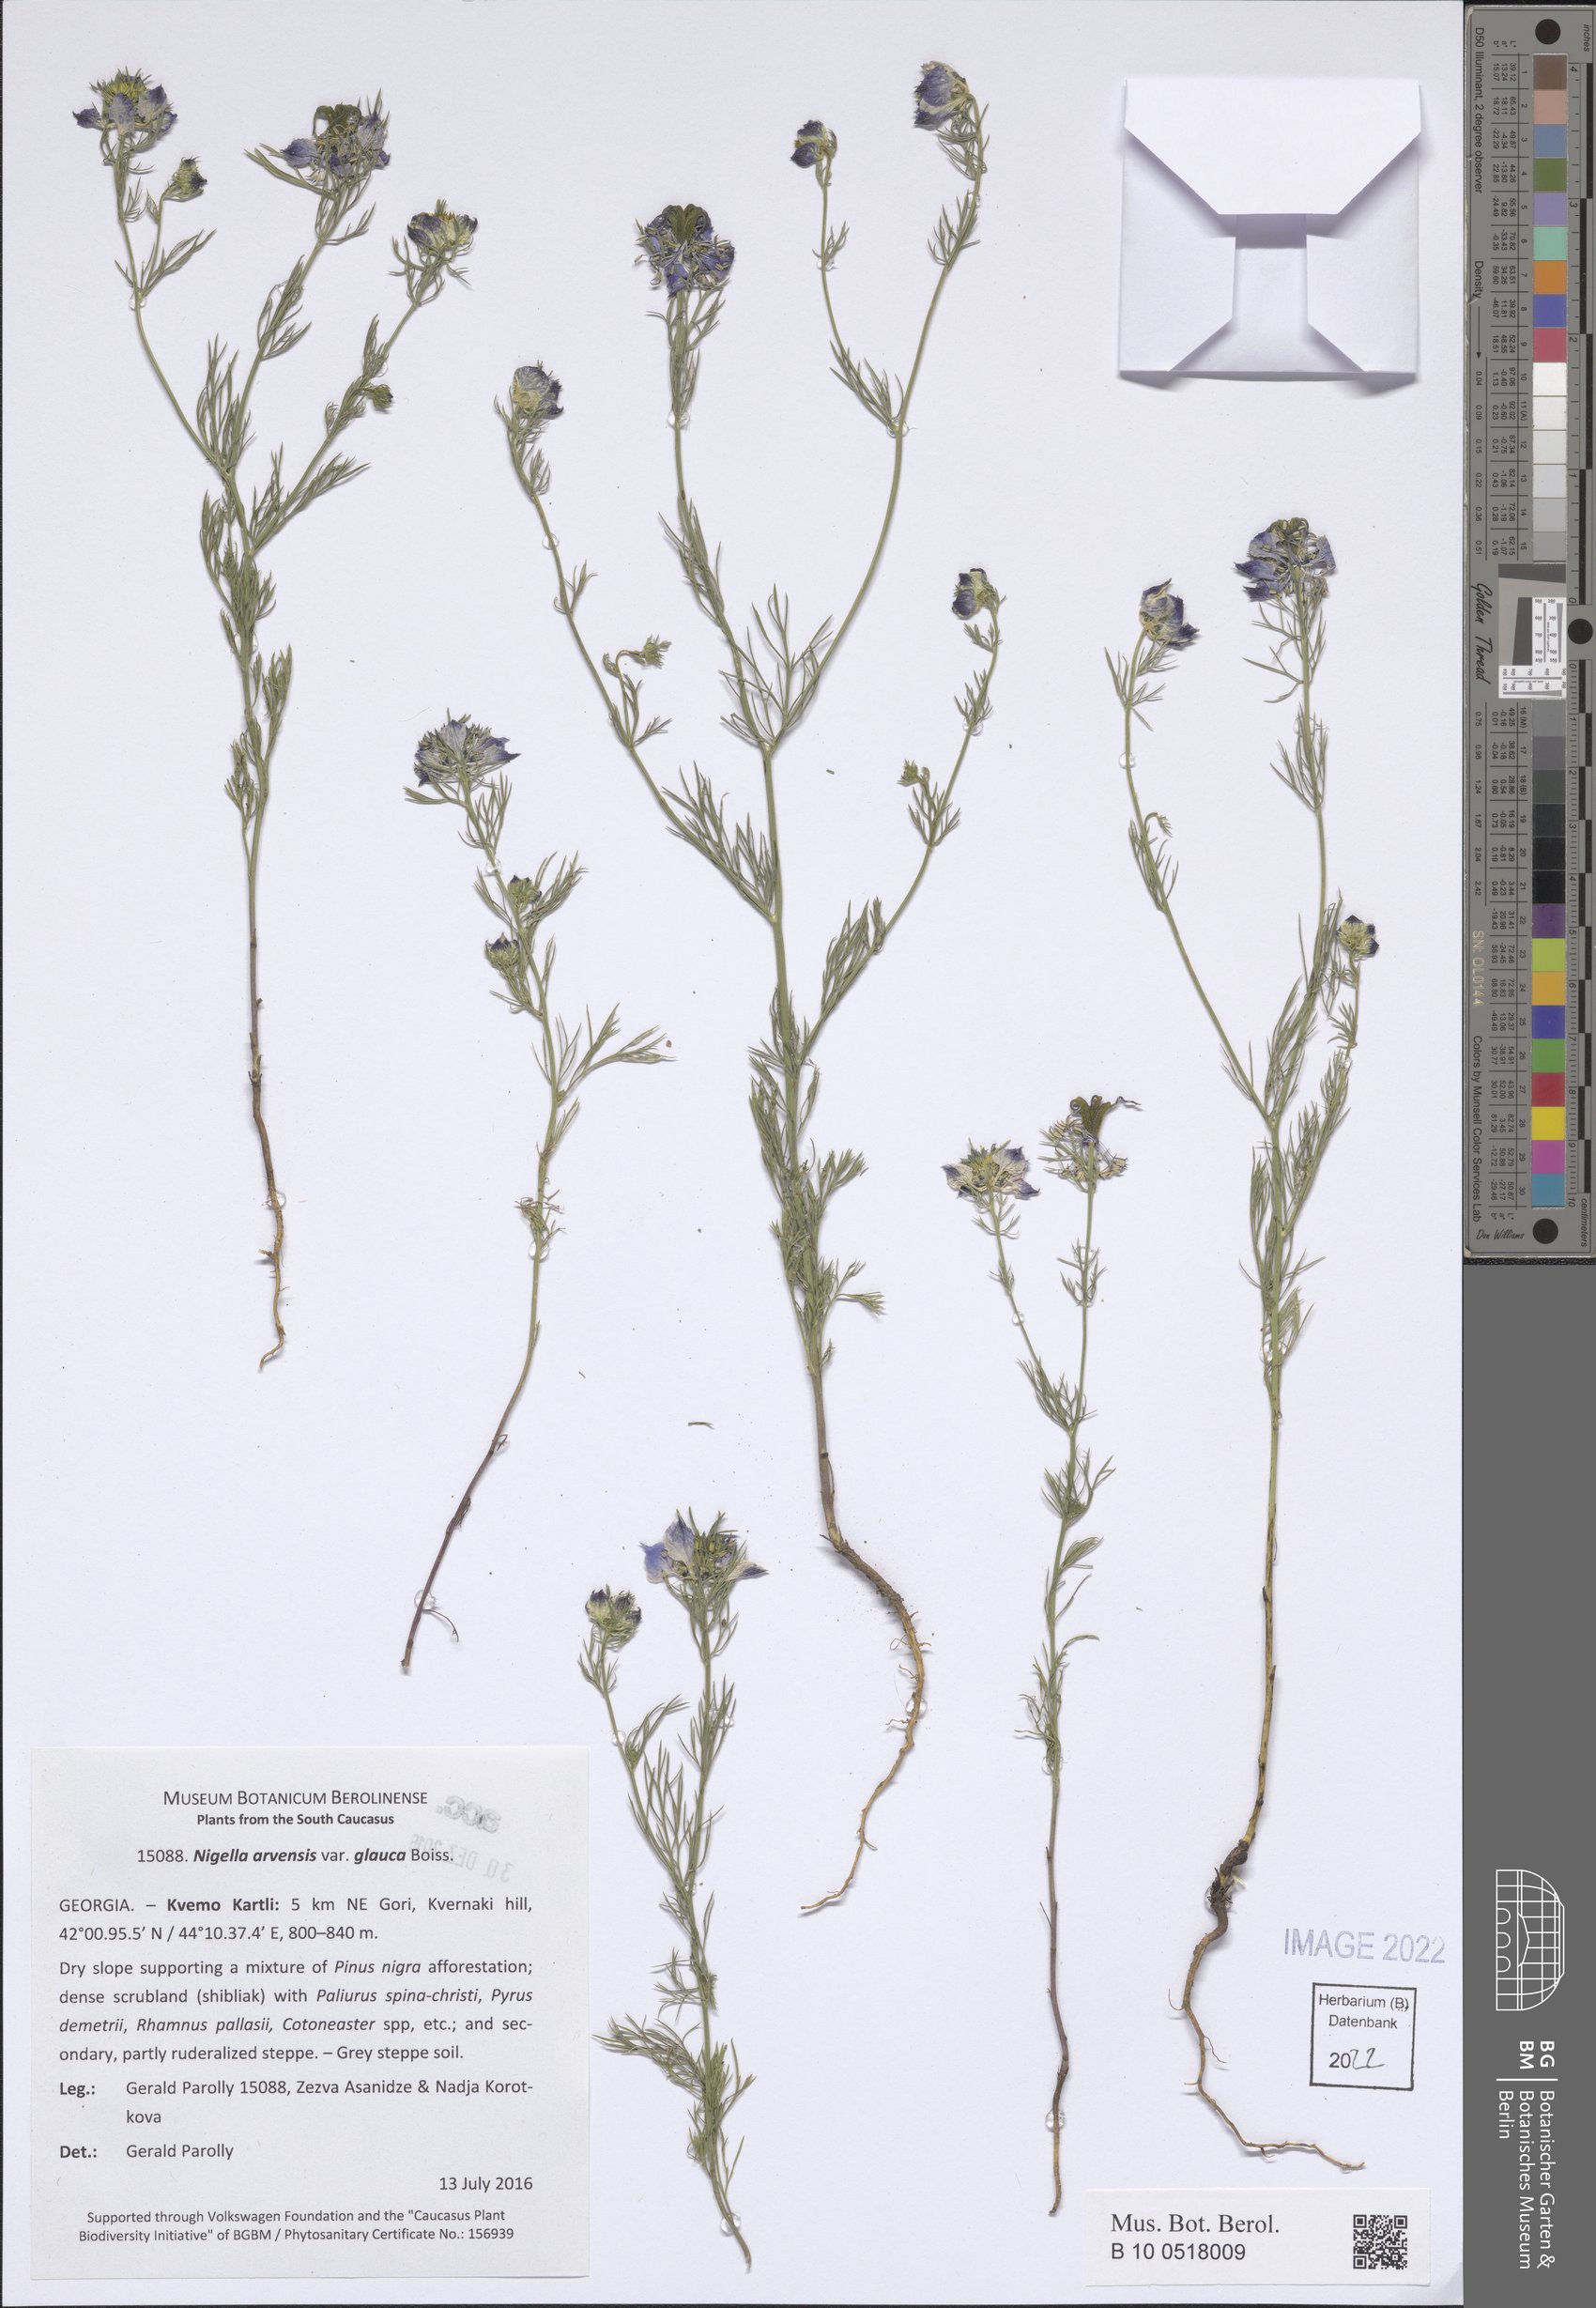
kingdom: Plantae
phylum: Tracheophyta
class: Magnoliopsida
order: Ranunculales
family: Ranunculaceae
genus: Nigella
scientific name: Nigella arvensis
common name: Wild fennel-flower
